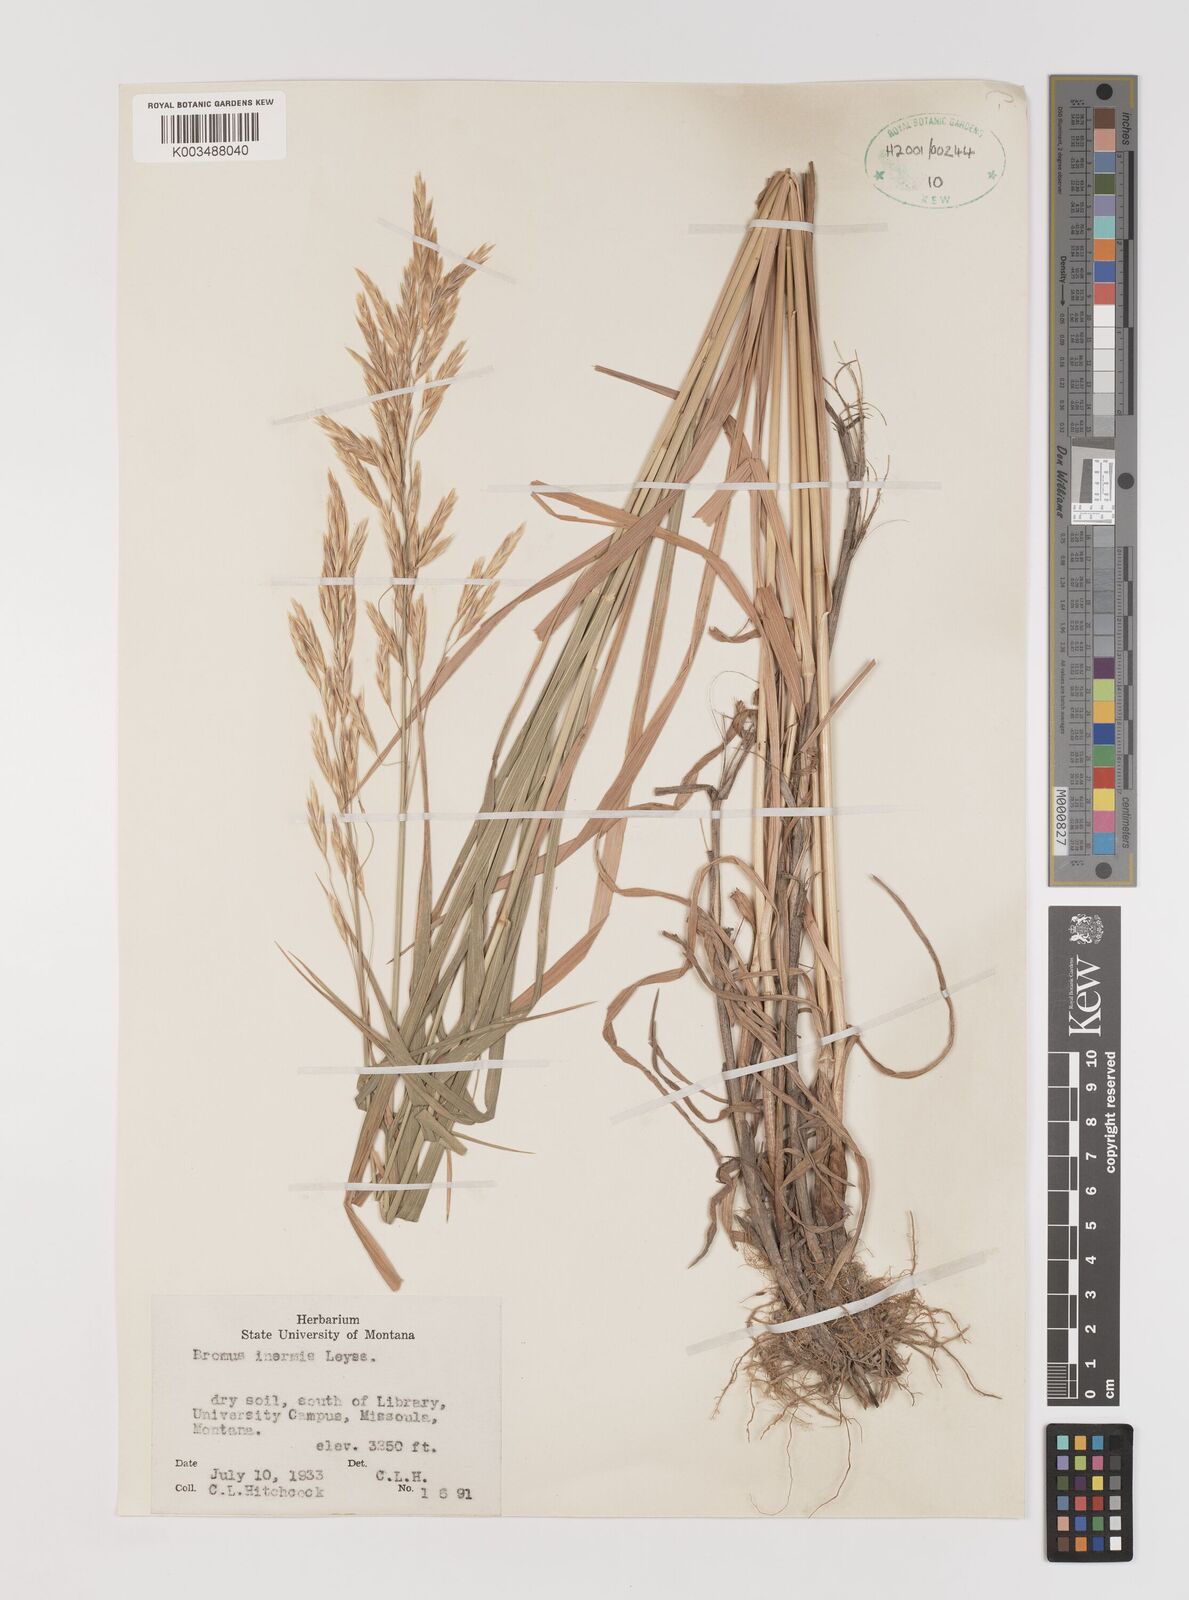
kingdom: Plantae
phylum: Tracheophyta
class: Liliopsida
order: Poales
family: Poaceae
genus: Bromus
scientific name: Bromus inermis
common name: Smooth brome
